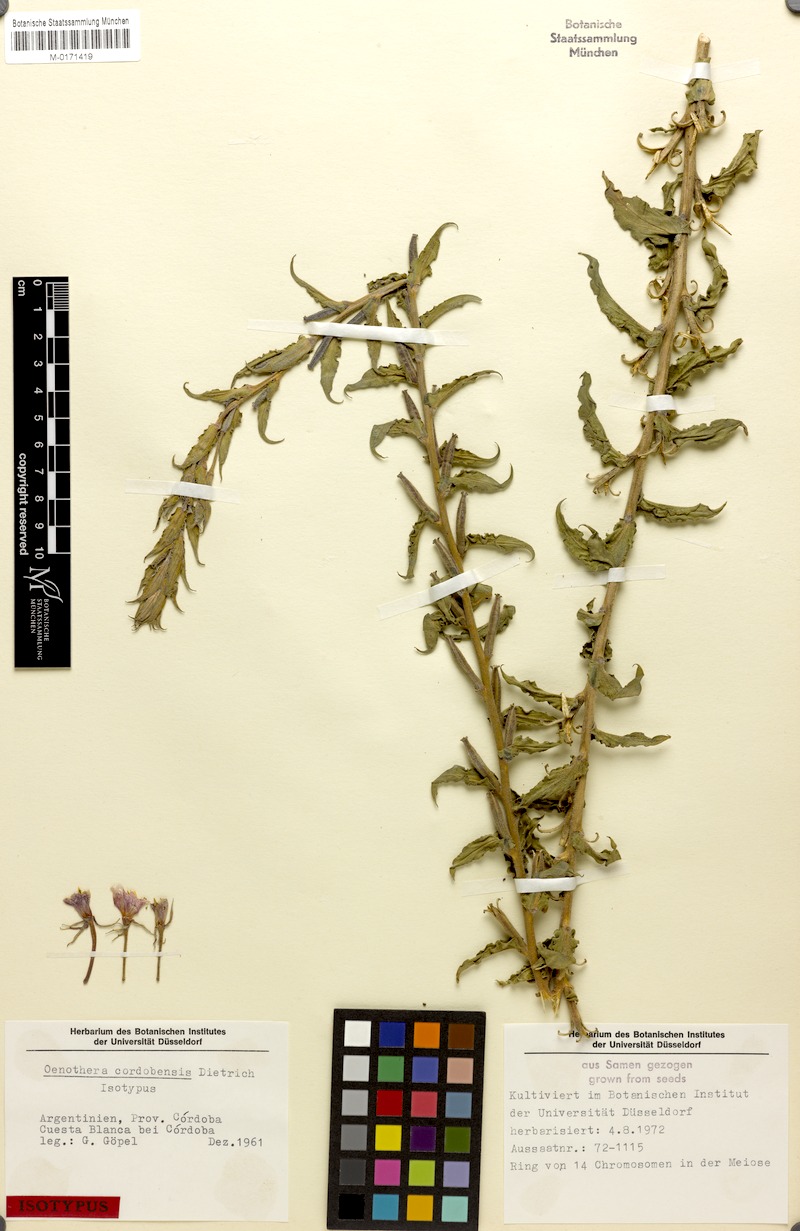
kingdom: Plantae
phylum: Tracheophyta
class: Magnoliopsida
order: Myrtales
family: Onagraceae
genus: Oenothera
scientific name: Oenothera siambonensis
